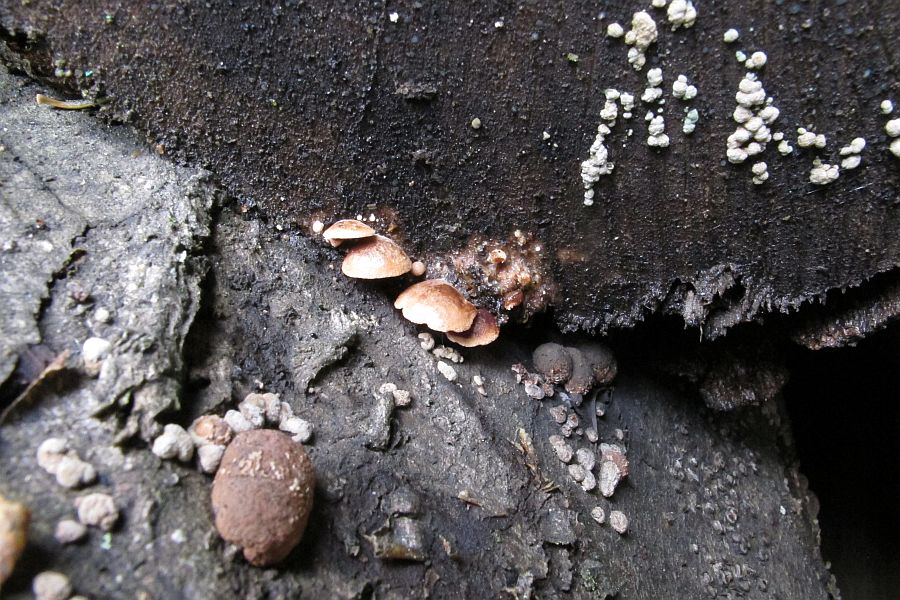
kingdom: Fungi
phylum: Basidiomycota
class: Agaricomycetes
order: Agaricales
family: Strophariaceae
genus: Deconica
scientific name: Deconica horizontalis
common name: ved-stråhat
